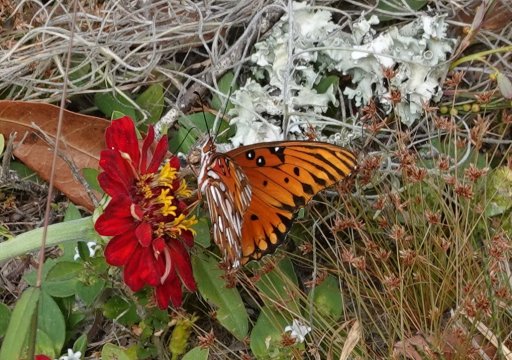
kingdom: Animalia
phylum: Arthropoda
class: Insecta
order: Lepidoptera
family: Nymphalidae
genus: Dione
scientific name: Dione vanillae
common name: Gulf Fritillary
